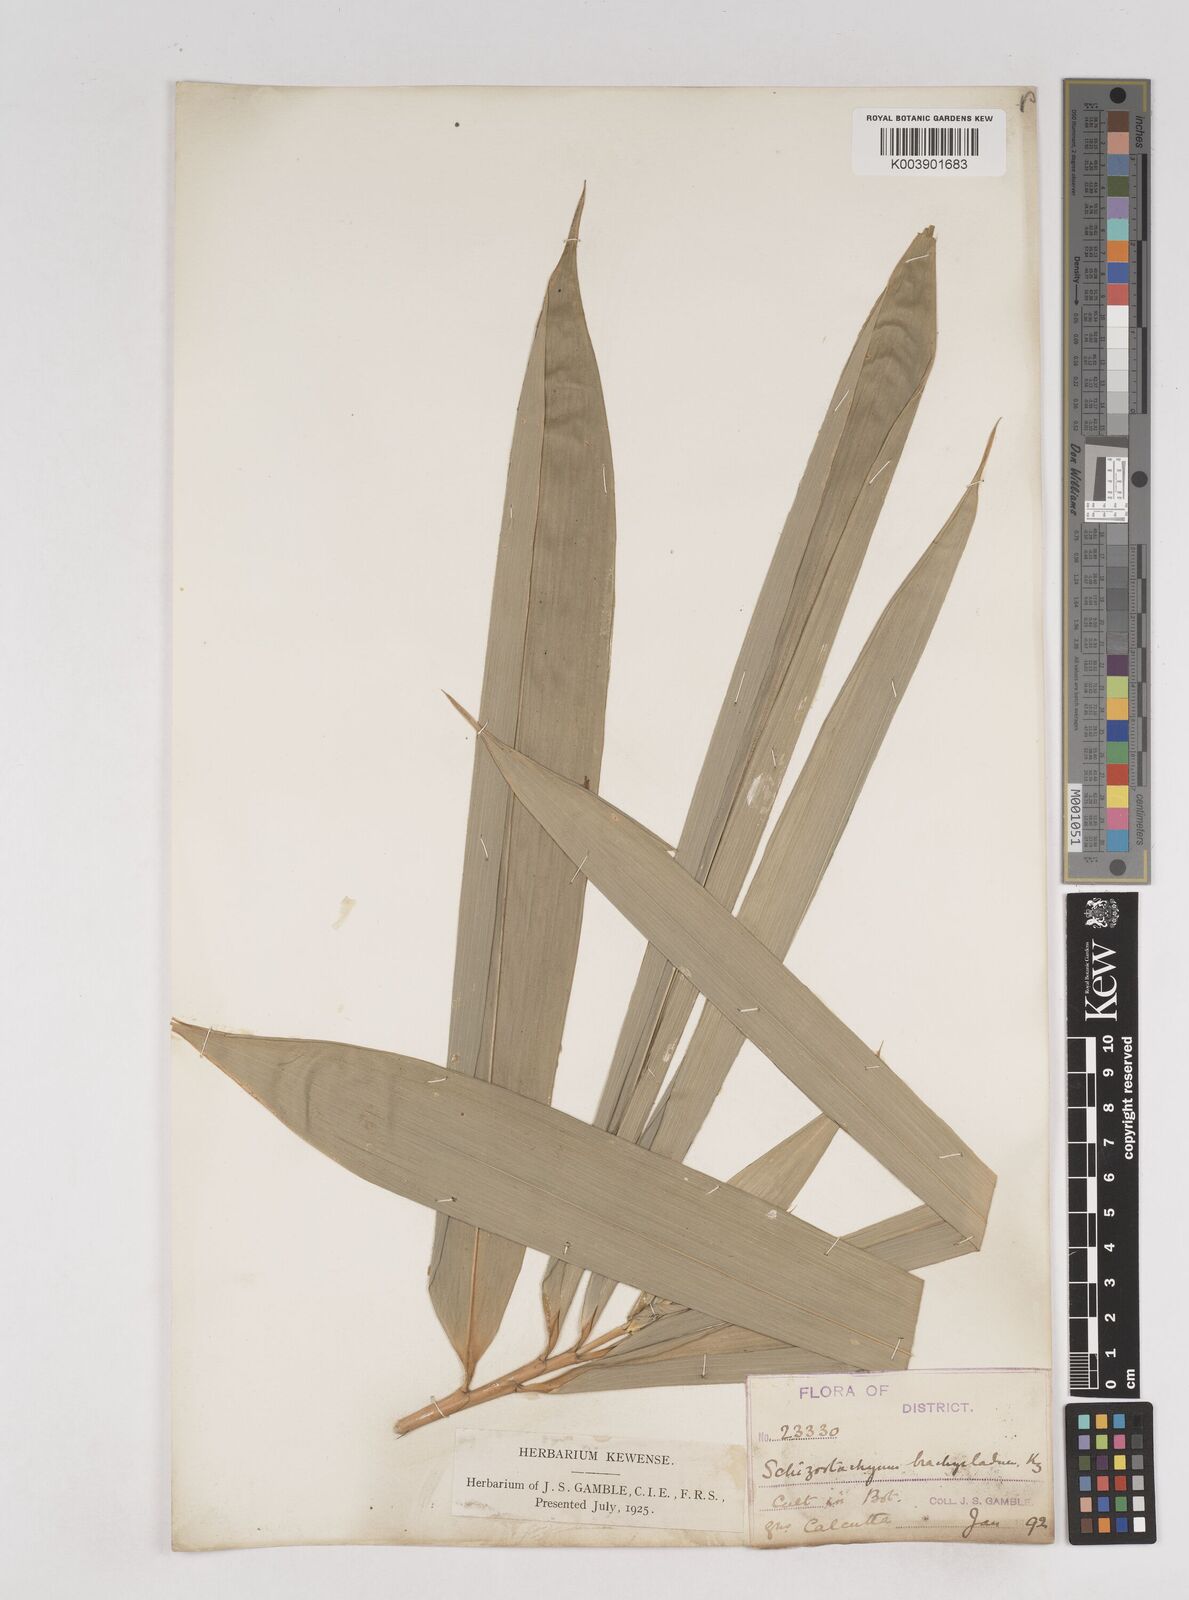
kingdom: Plantae
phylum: Tracheophyta
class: Liliopsida
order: Poales
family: Poaceae
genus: Schizostachyum
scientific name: Schizostachyum brachycladum
